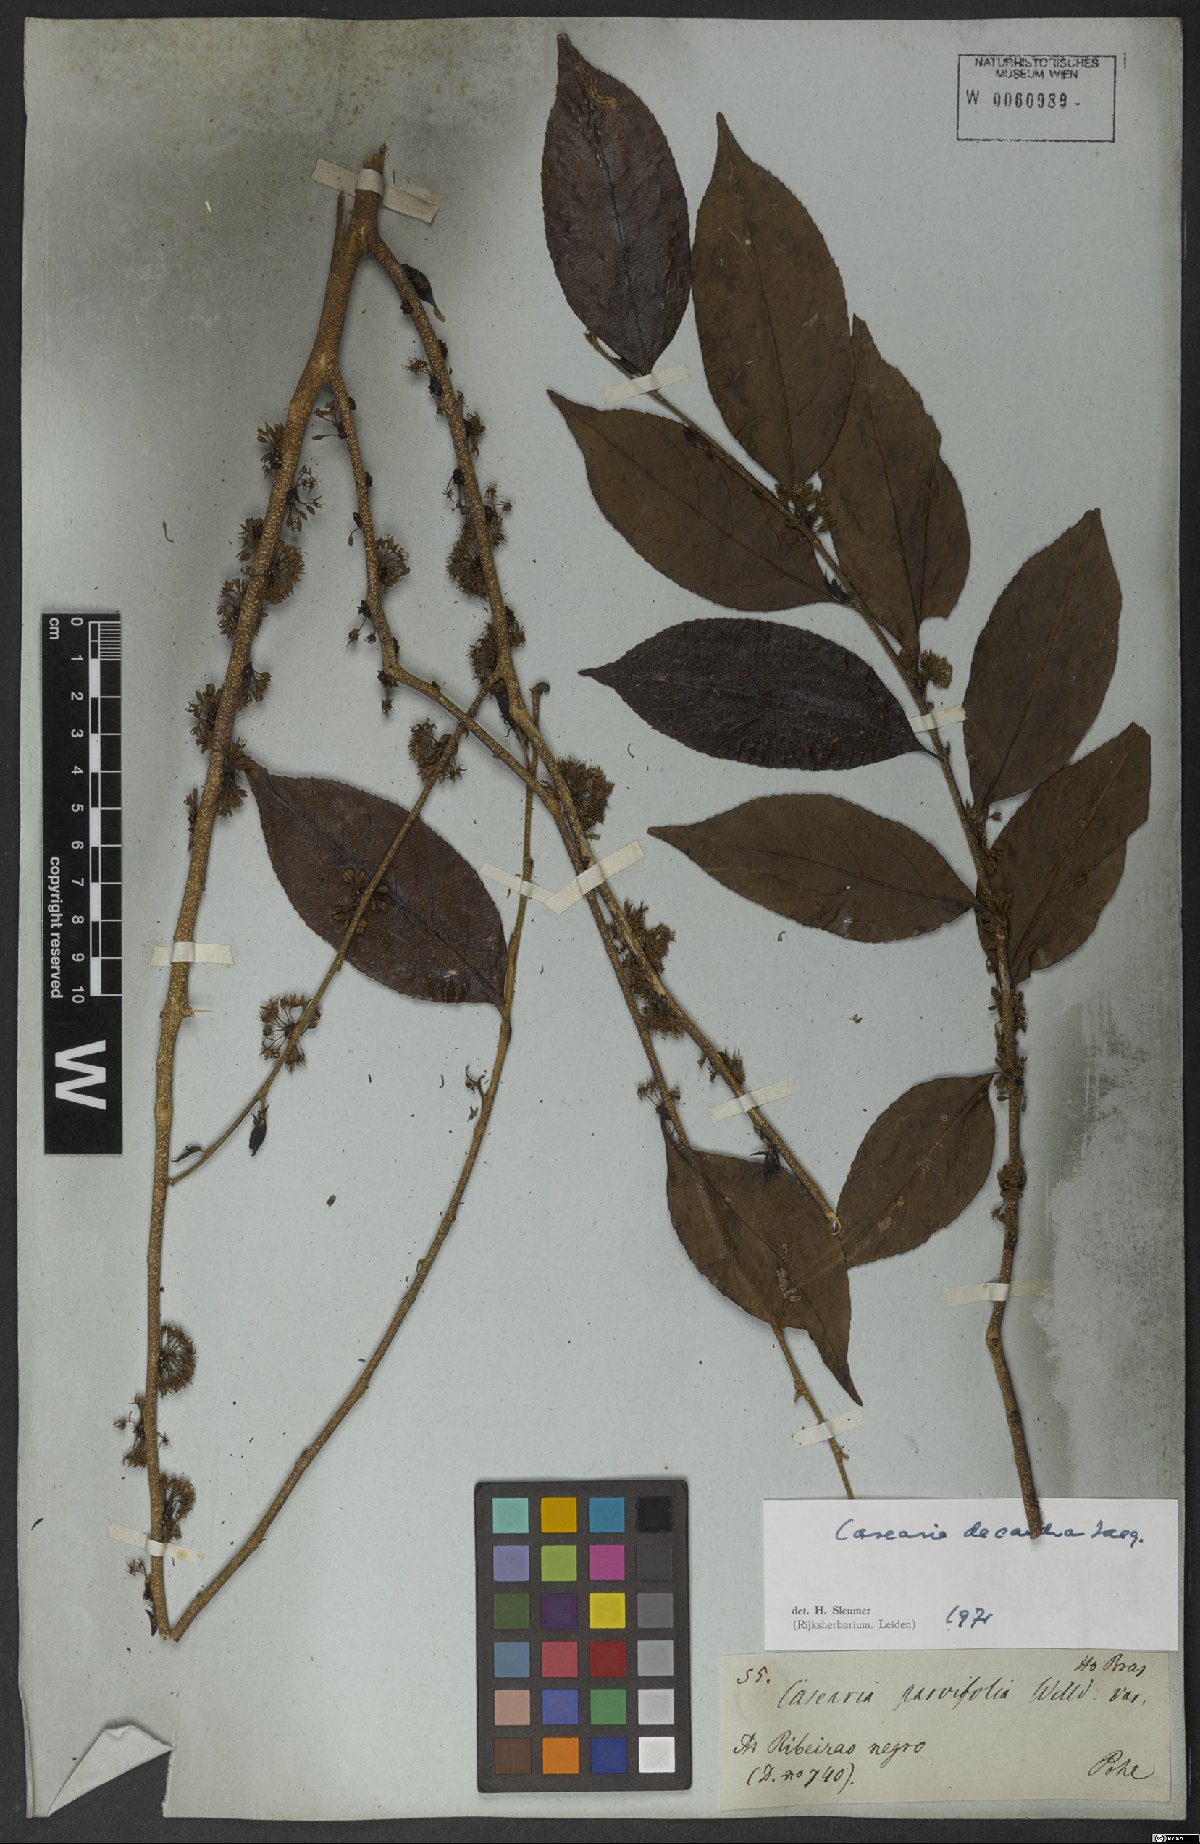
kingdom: Plantae
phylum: Tracheophyta
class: Magnoliopsida
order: Malpighiales
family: Salicaceae
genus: Casearia
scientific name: Casearia decandra
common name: Crack open
